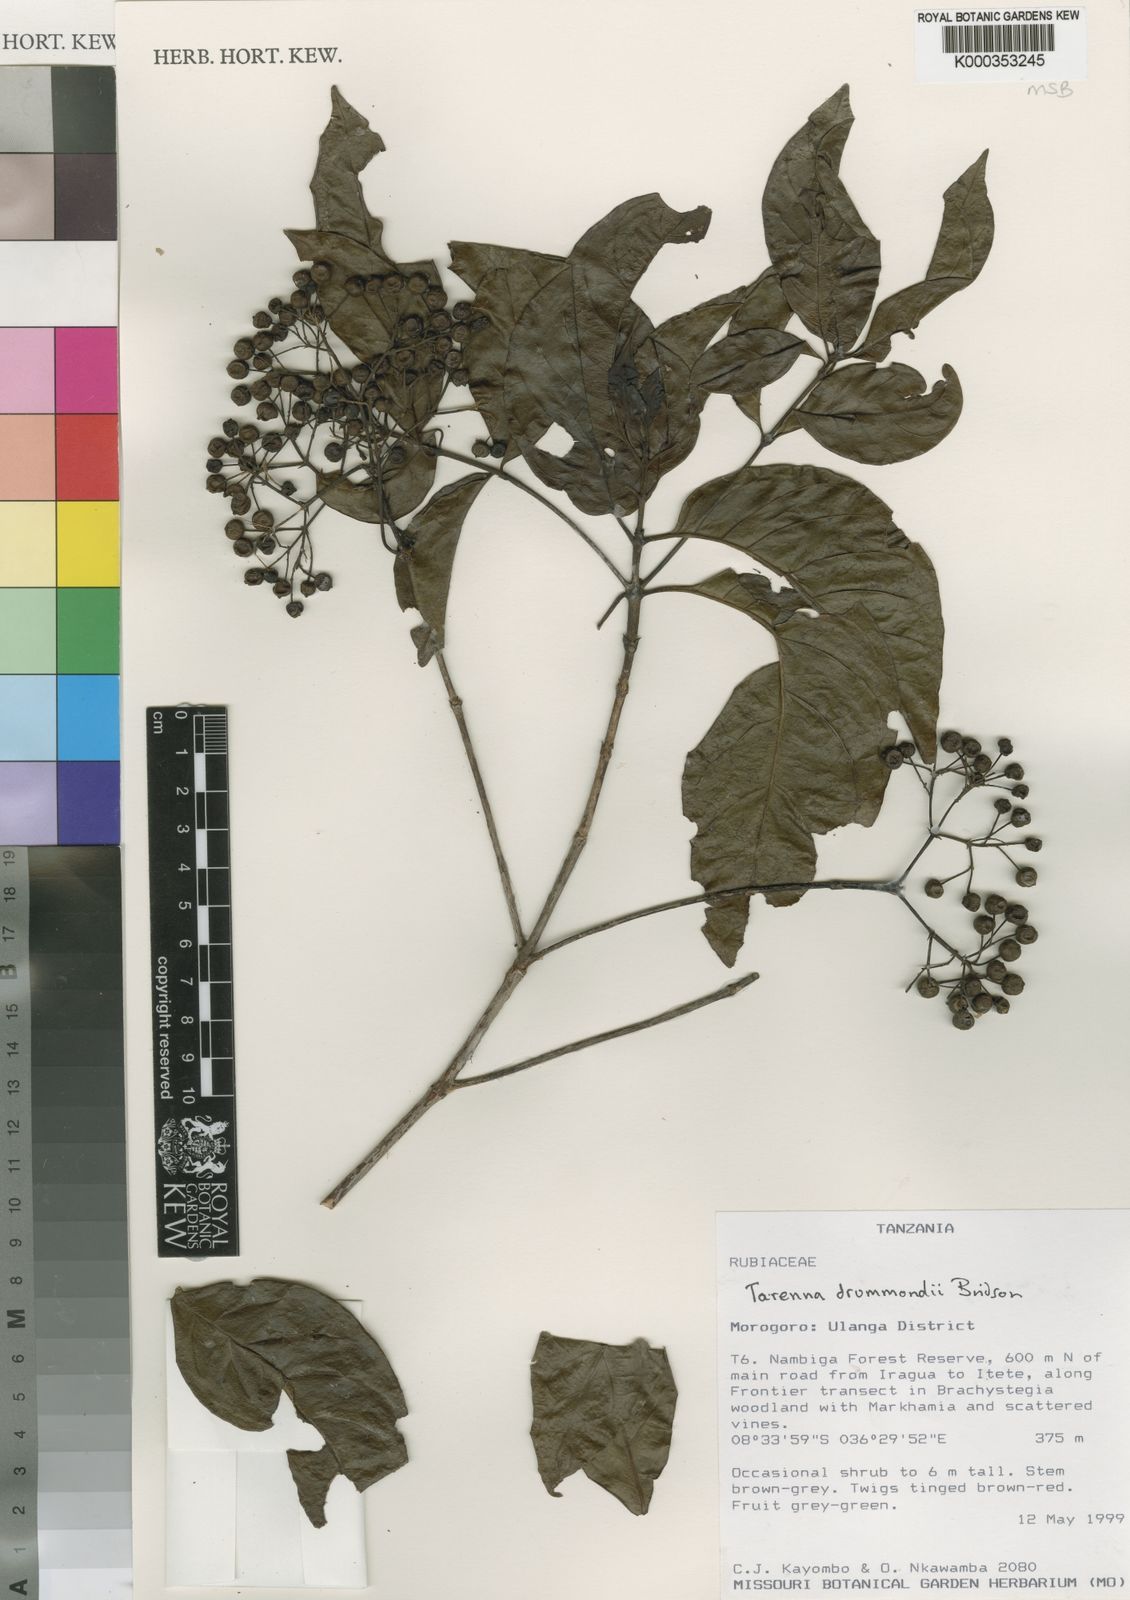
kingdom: Plantae
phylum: Tracheophyta
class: Magnoliopsida
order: Gentianales
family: Rubiaceae
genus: Tarenna
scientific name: Tarenna drummondii
